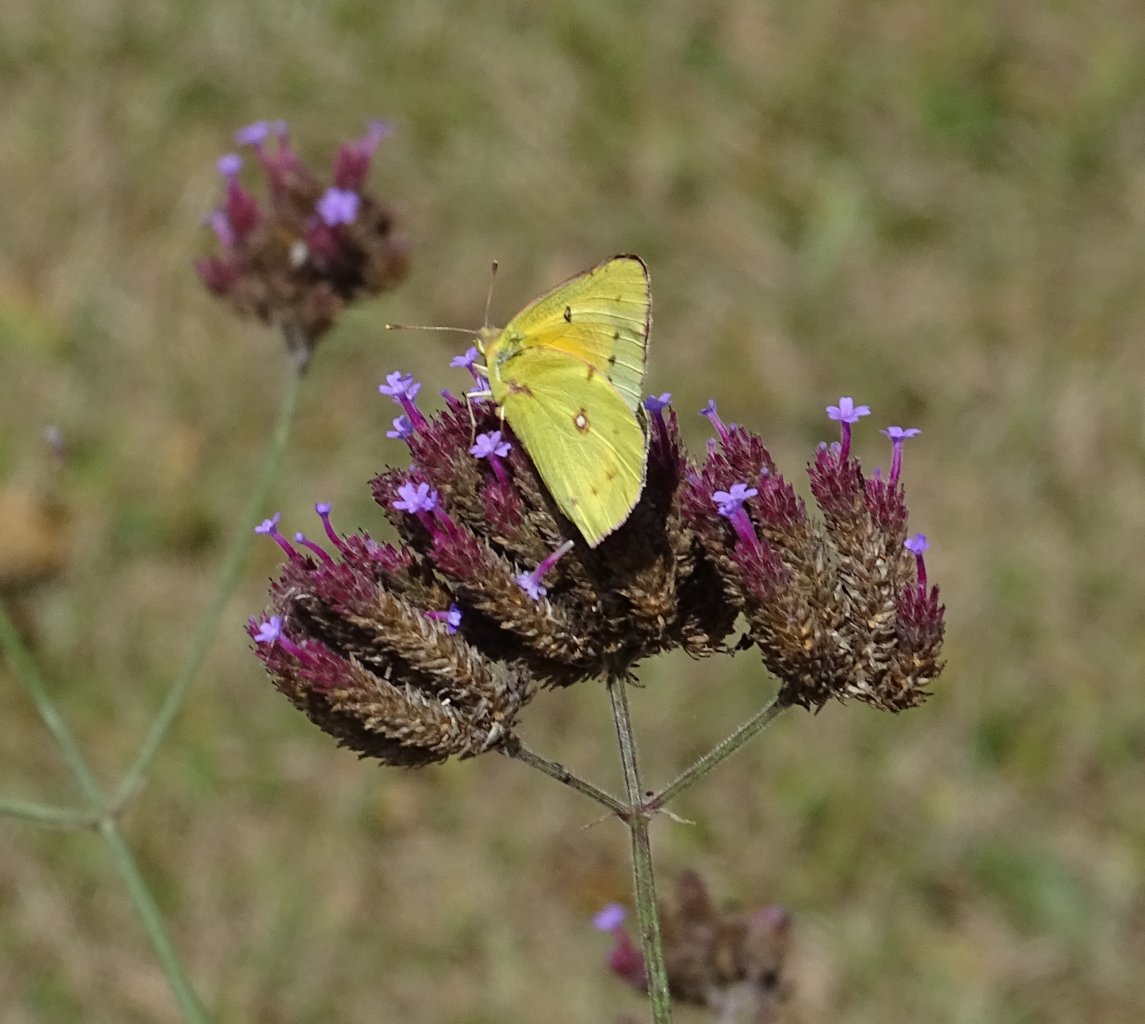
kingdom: Animalia
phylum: Arthropoda
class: Insecta
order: Lepidoptera
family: Pieridae
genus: Colias
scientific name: Colias eurytheme
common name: Orange Sulphur
